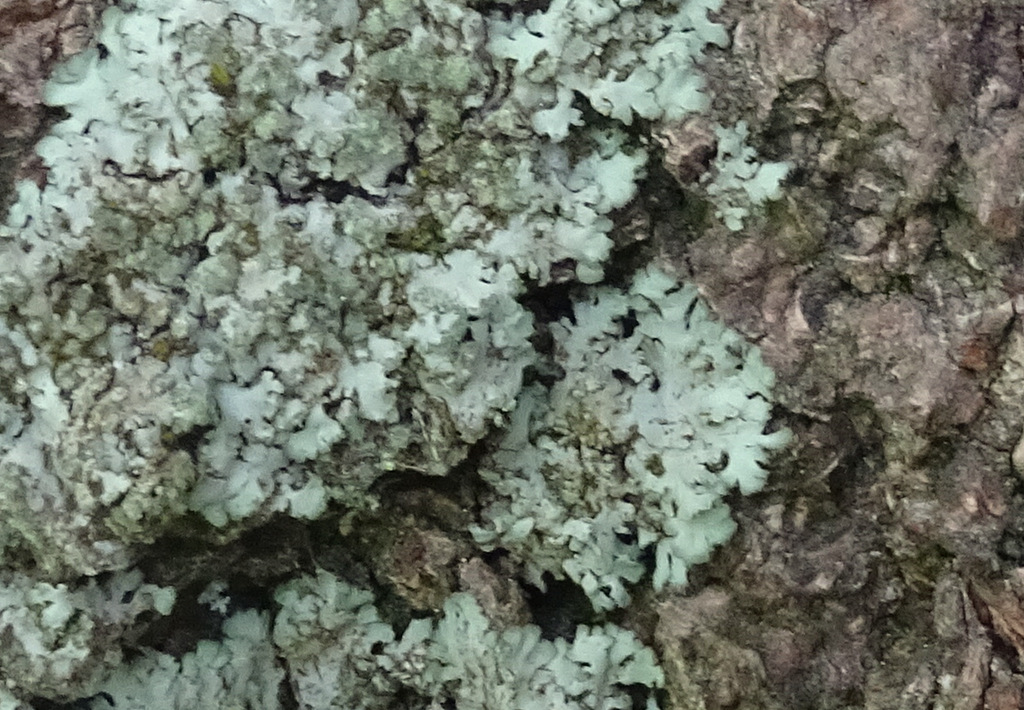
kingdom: Fungi
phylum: Ascomycota
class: Lecanoromycetes
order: Caliciales
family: Physciaceae
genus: Hyperphyscia
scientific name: Hyperphyscia adglutinata
